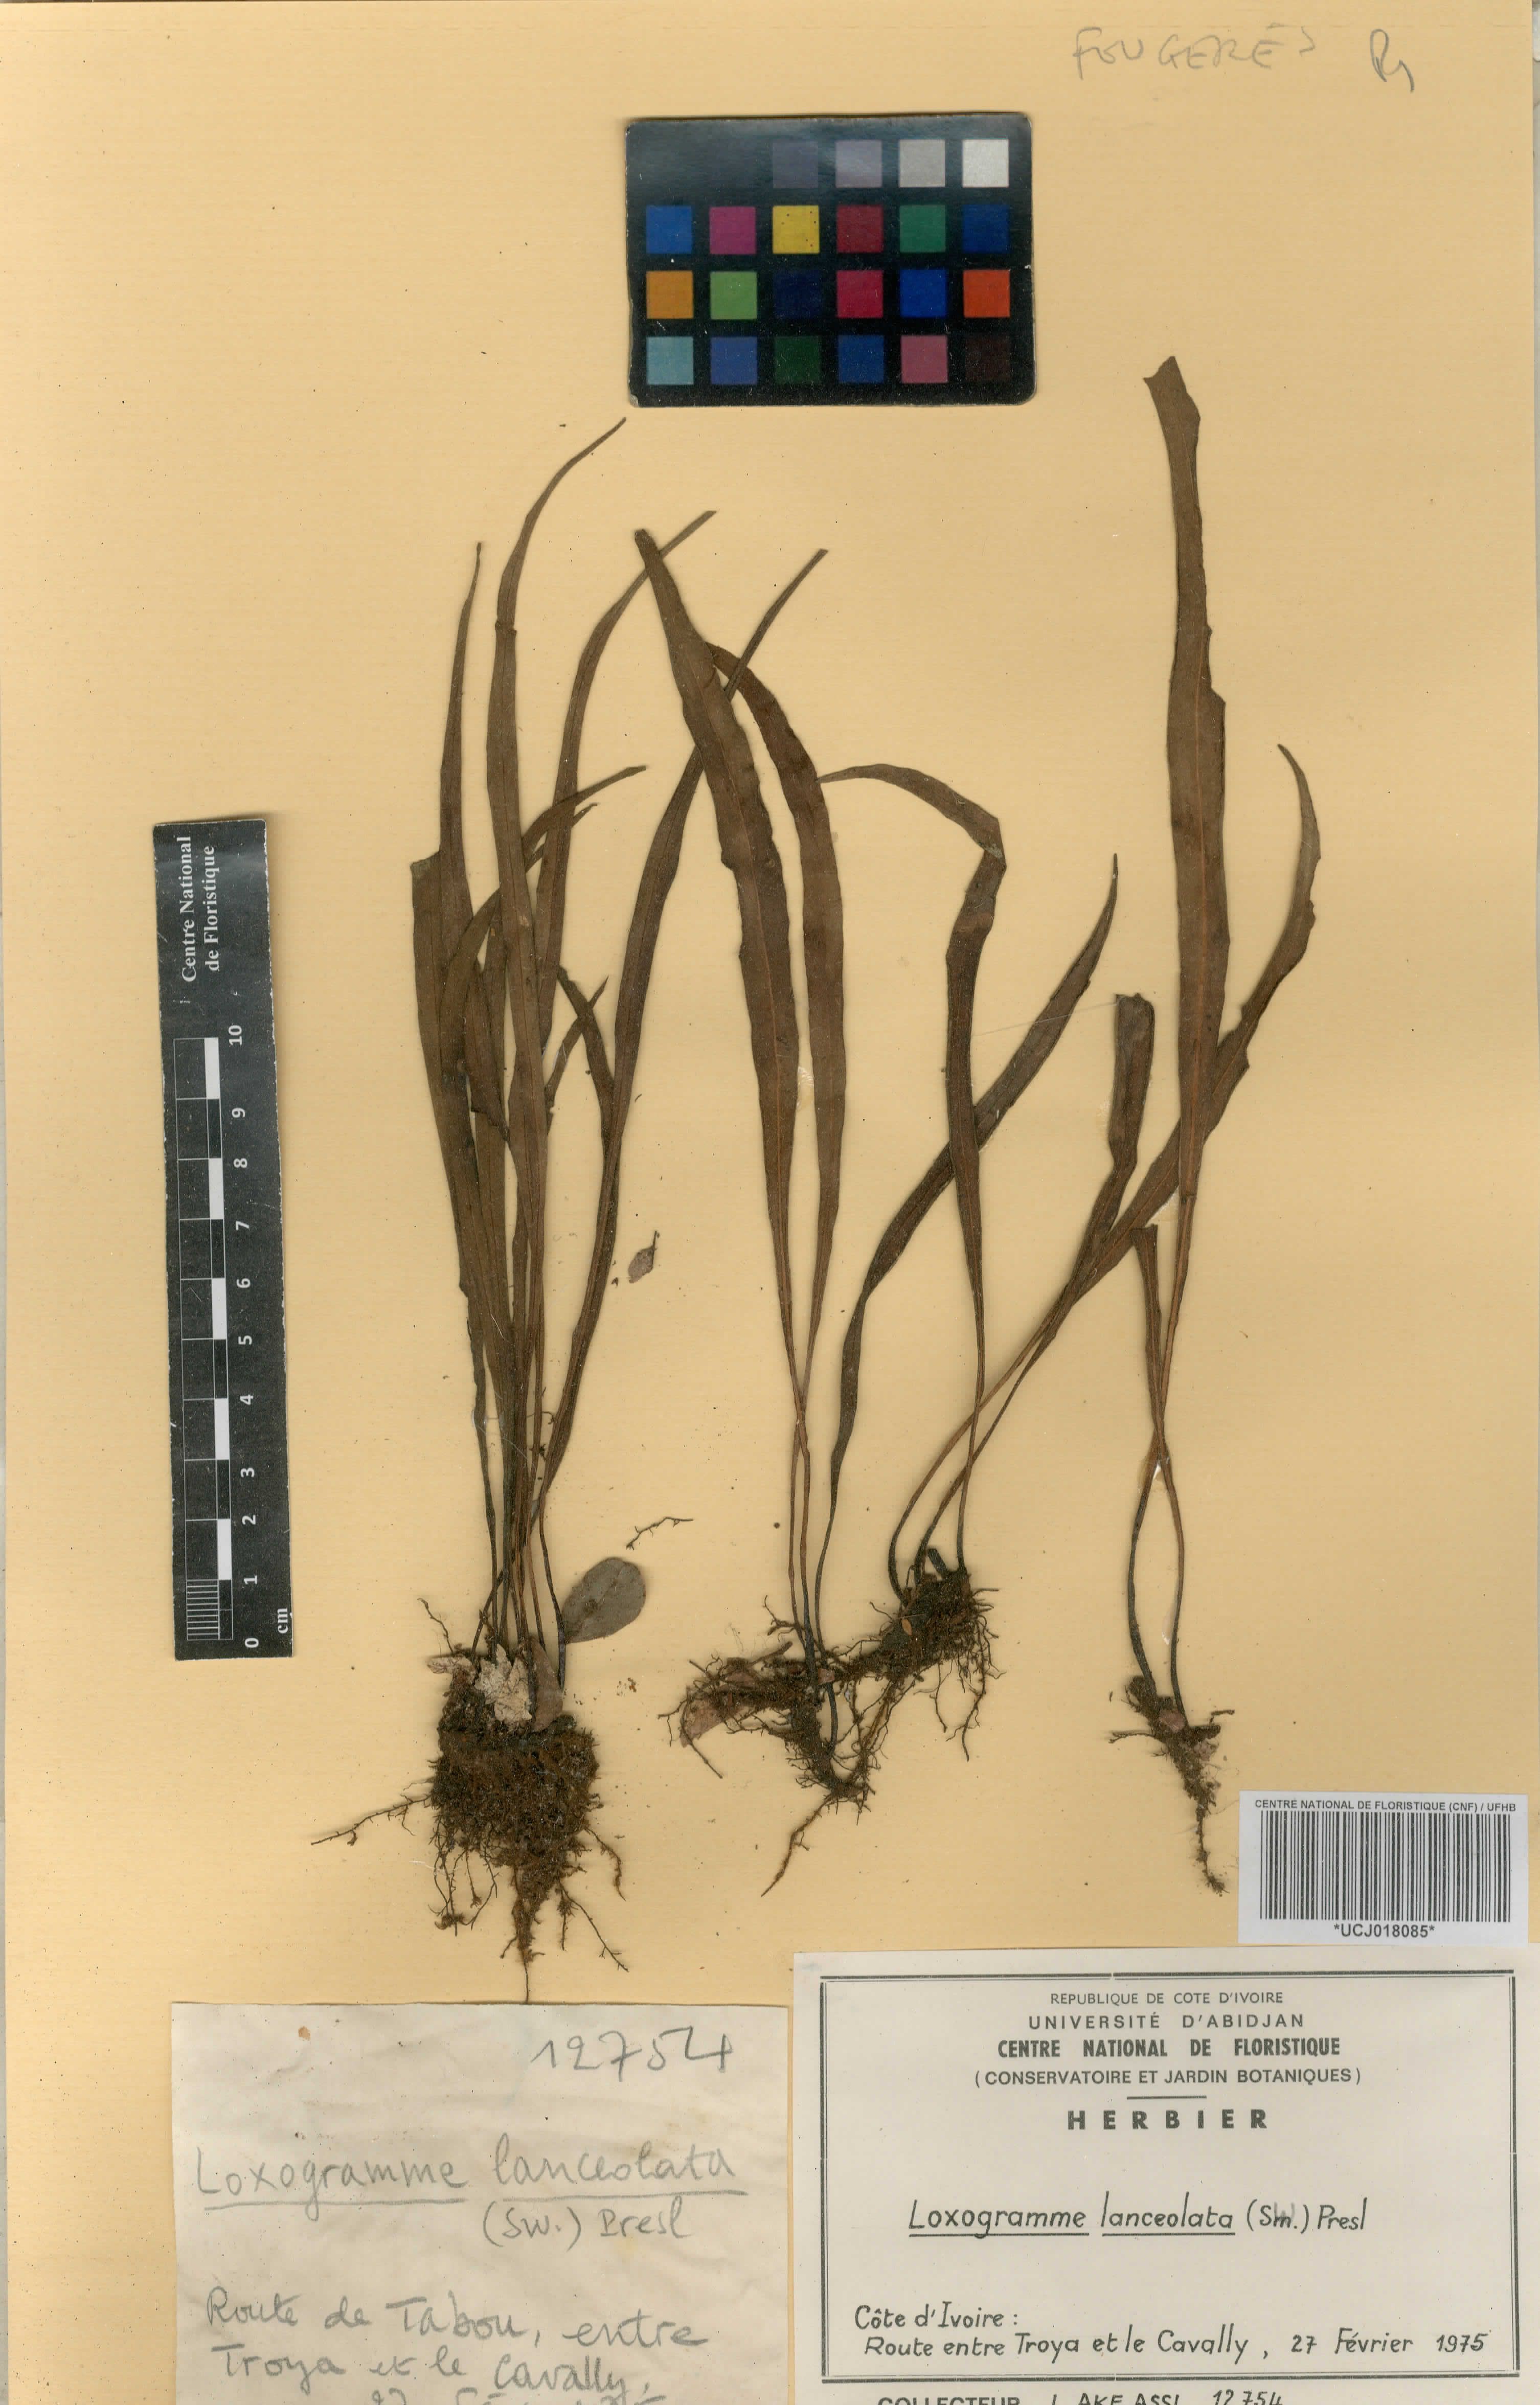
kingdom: Plantae
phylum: Tracheophyta
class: Polypodiopsida
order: Polypodiales
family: Polypodiaceae
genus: Loxogramme
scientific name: Loxogramme lanceolata
